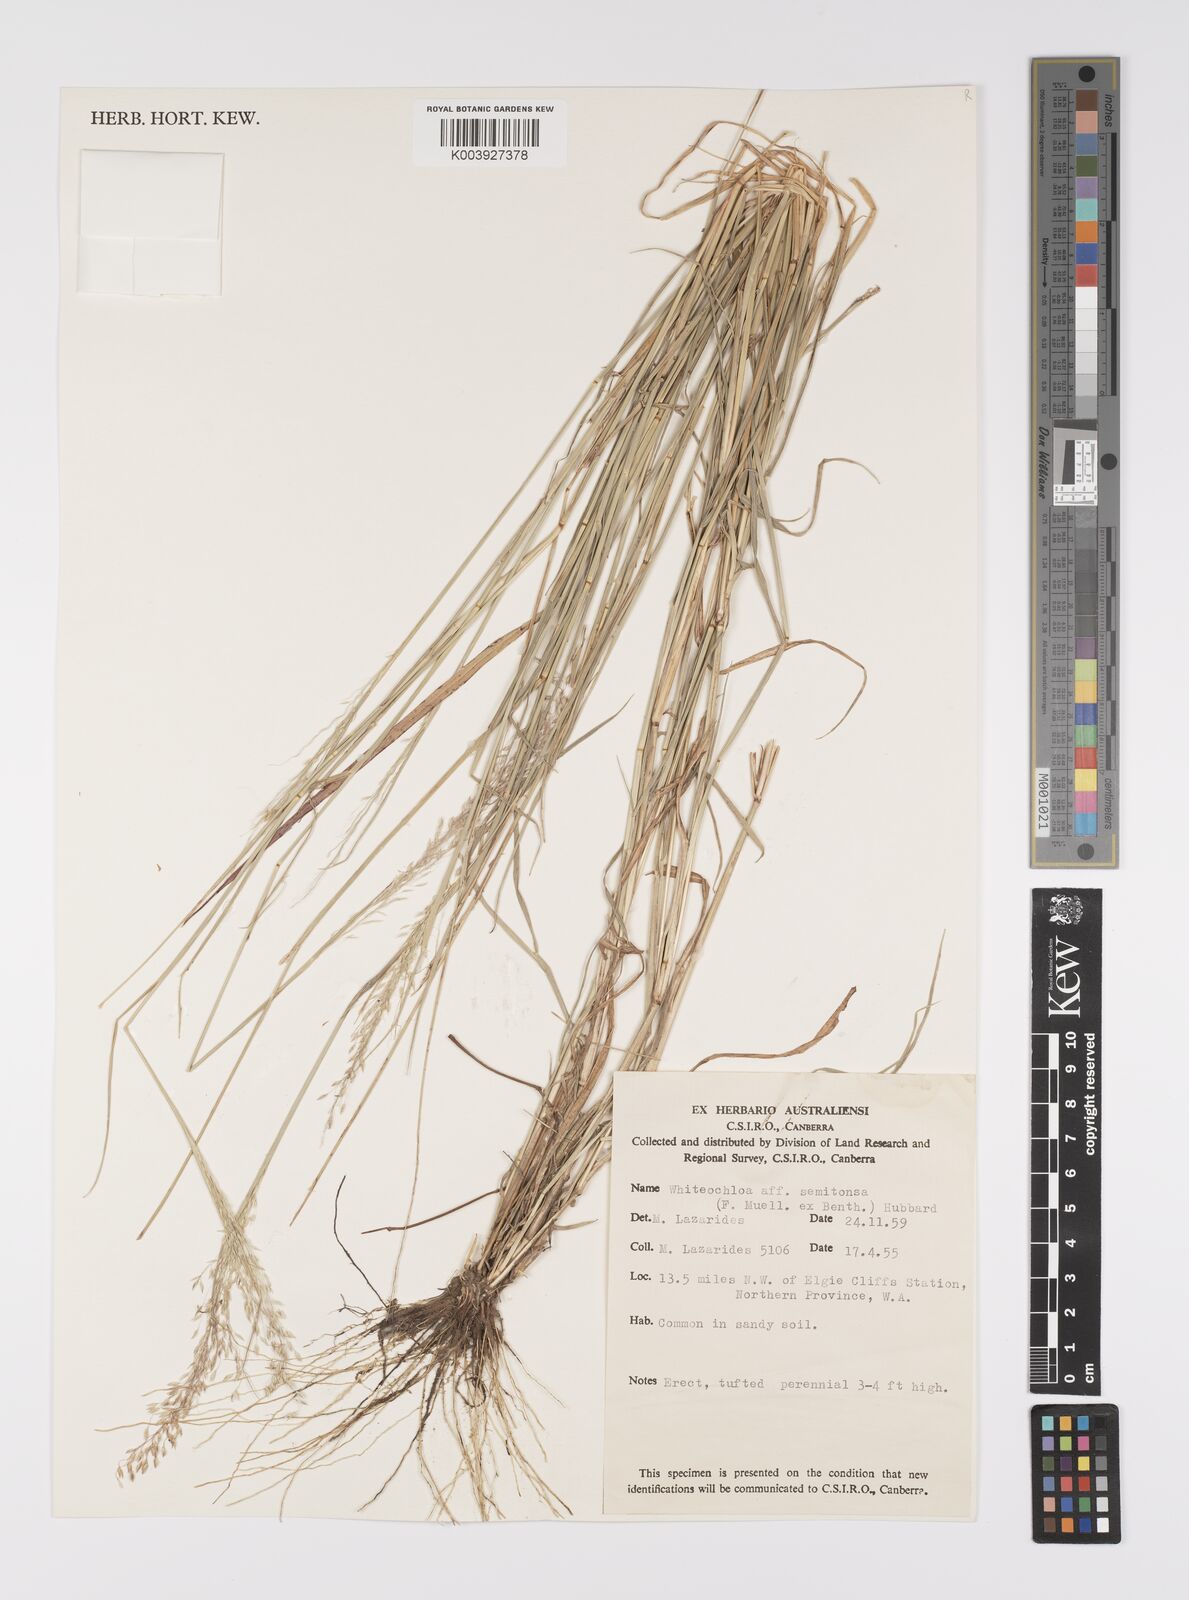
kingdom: Plantae
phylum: Tracheophyta
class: Liliopsida
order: Poales
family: Poaceae
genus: Whiteochloa
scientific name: Whiteochloa semitonsa
